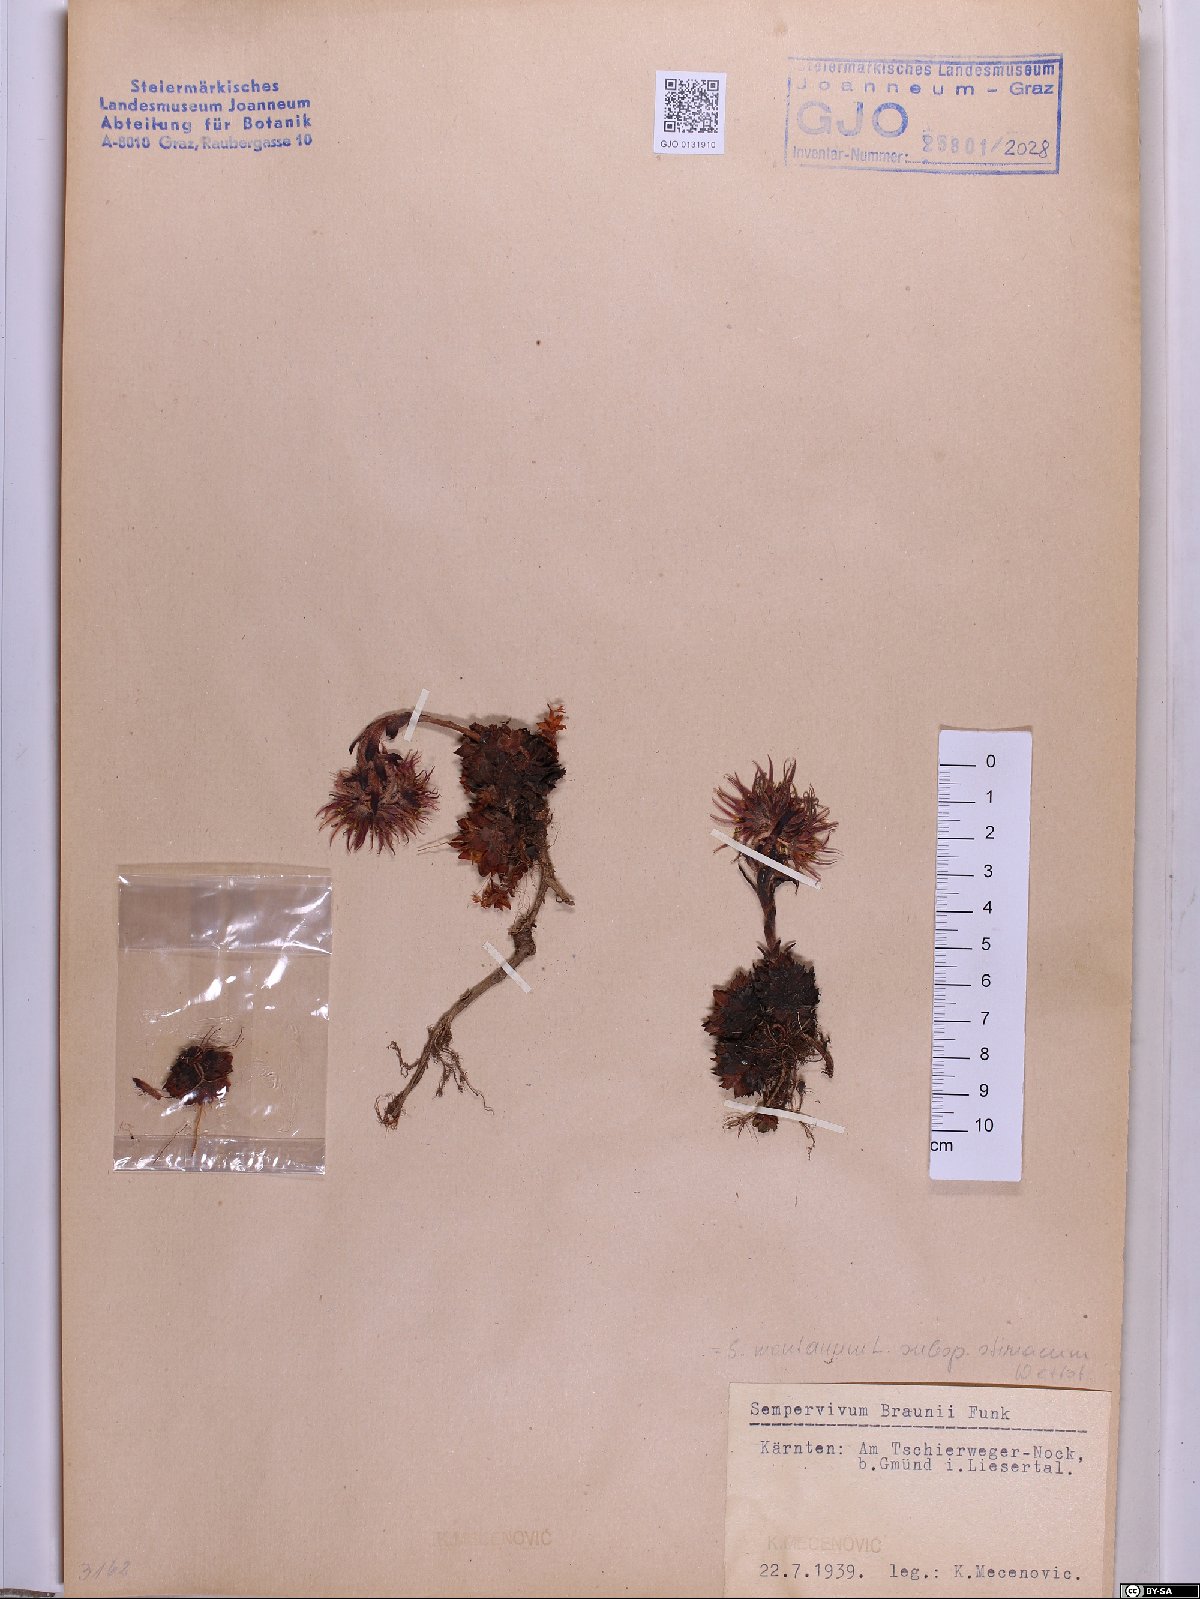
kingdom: Plantae
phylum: Tracheophyta
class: Magnoliopsida
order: Saxifragales
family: Crassulaceae
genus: Sempervivum
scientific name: Sempervivum montanum
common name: Mountain house-leek
